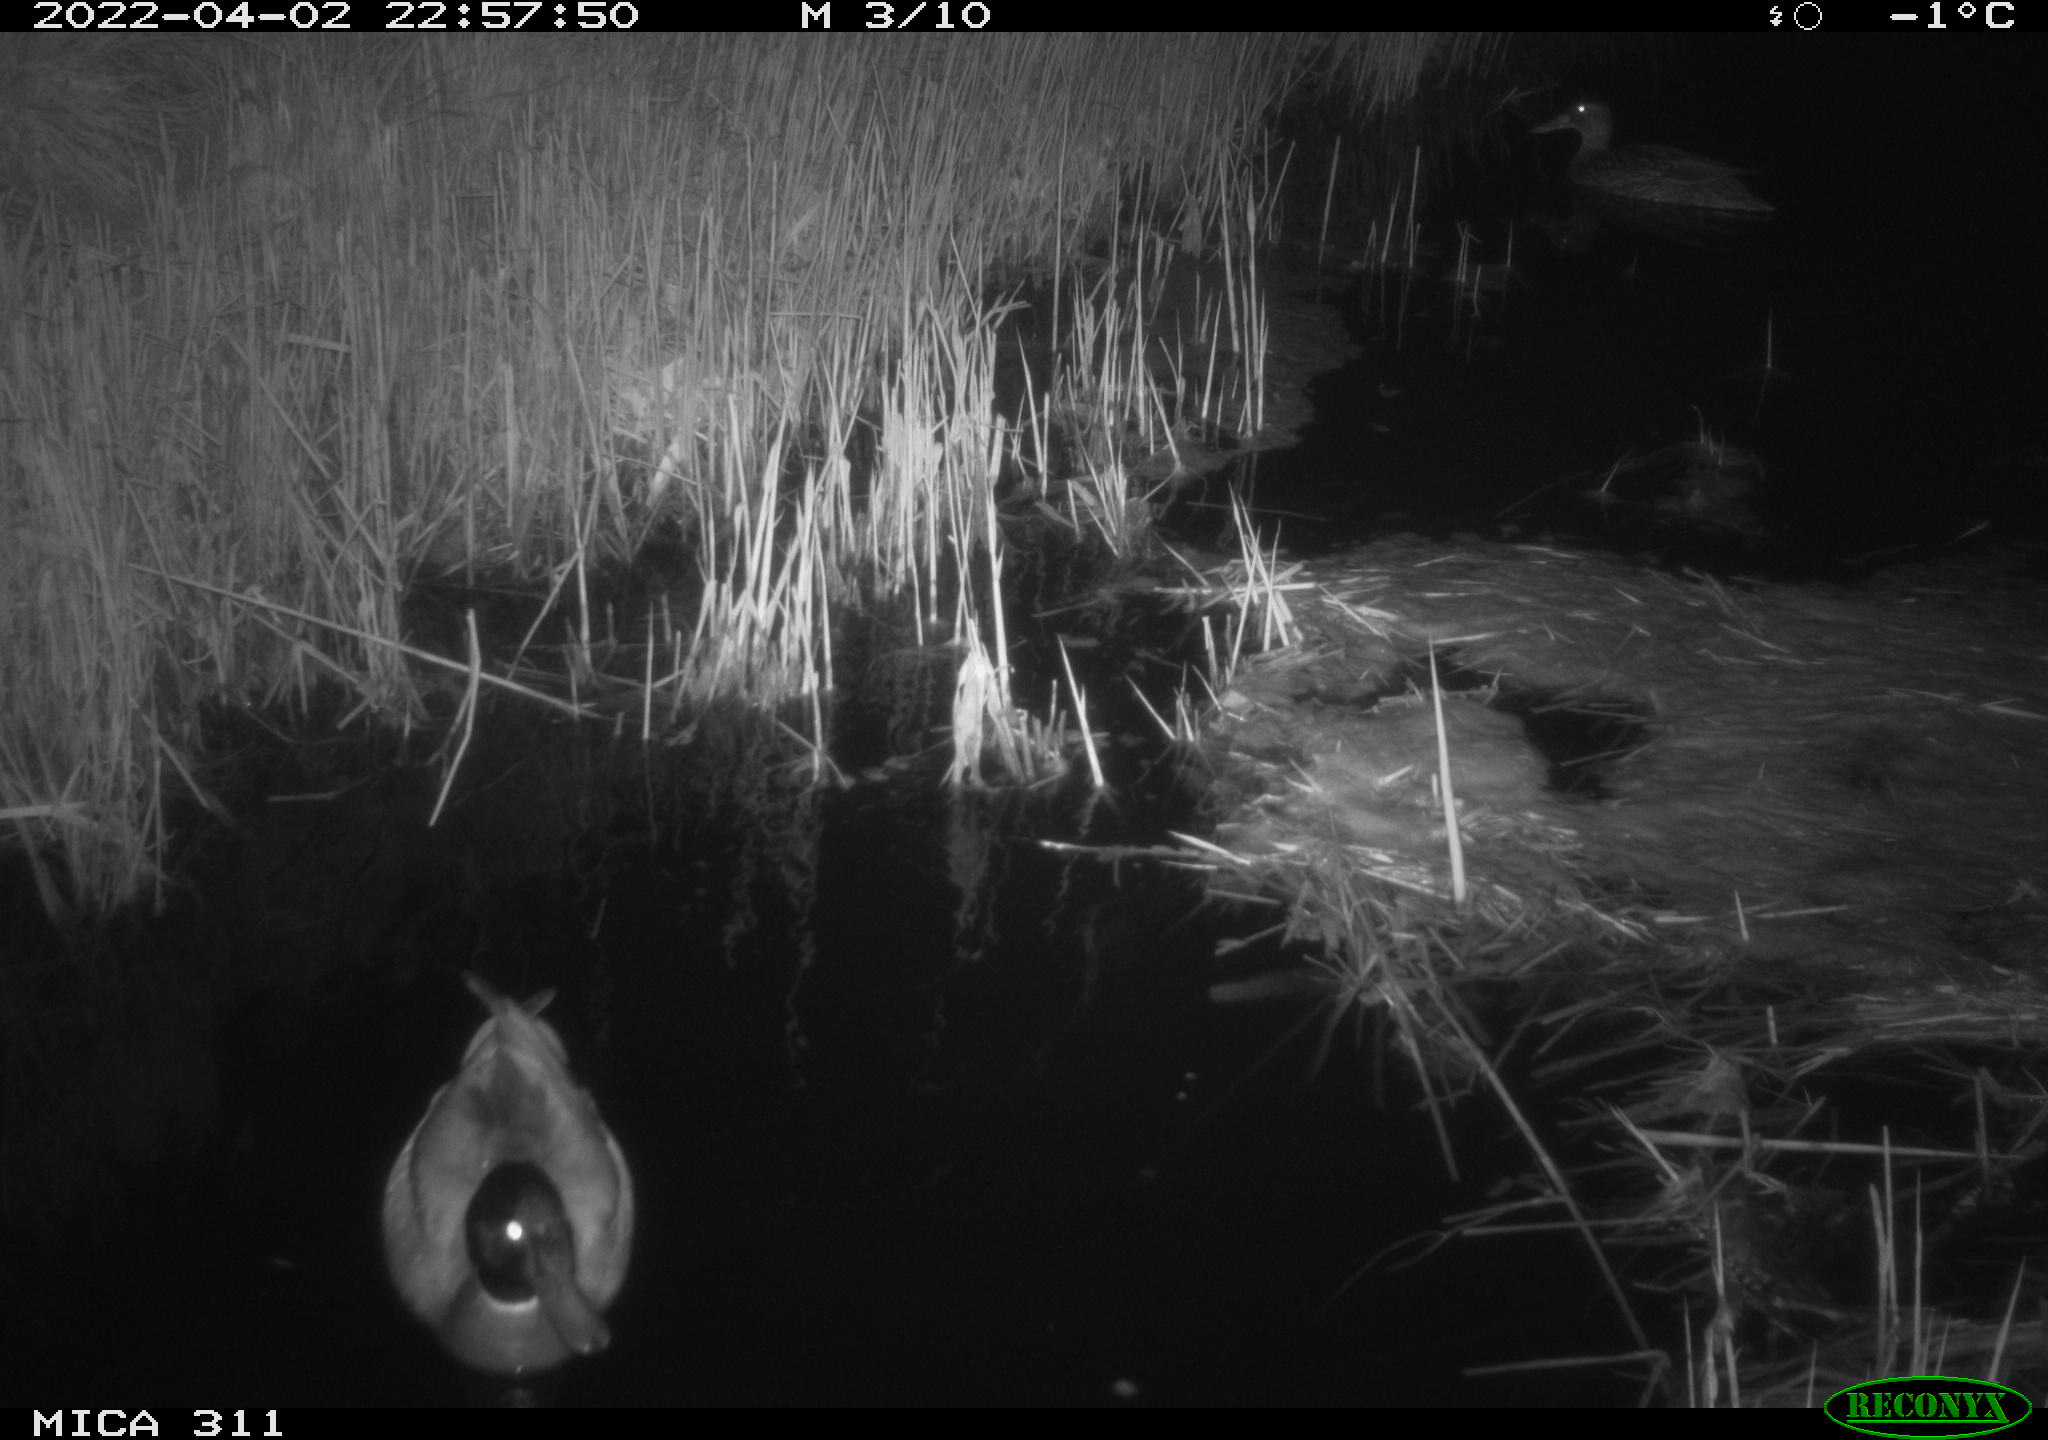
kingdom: Animalia
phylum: Chordata
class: Aves
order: Anseriformes
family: Anatidae
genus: Anas
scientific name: Anas platyrhynchos
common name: Mallard
